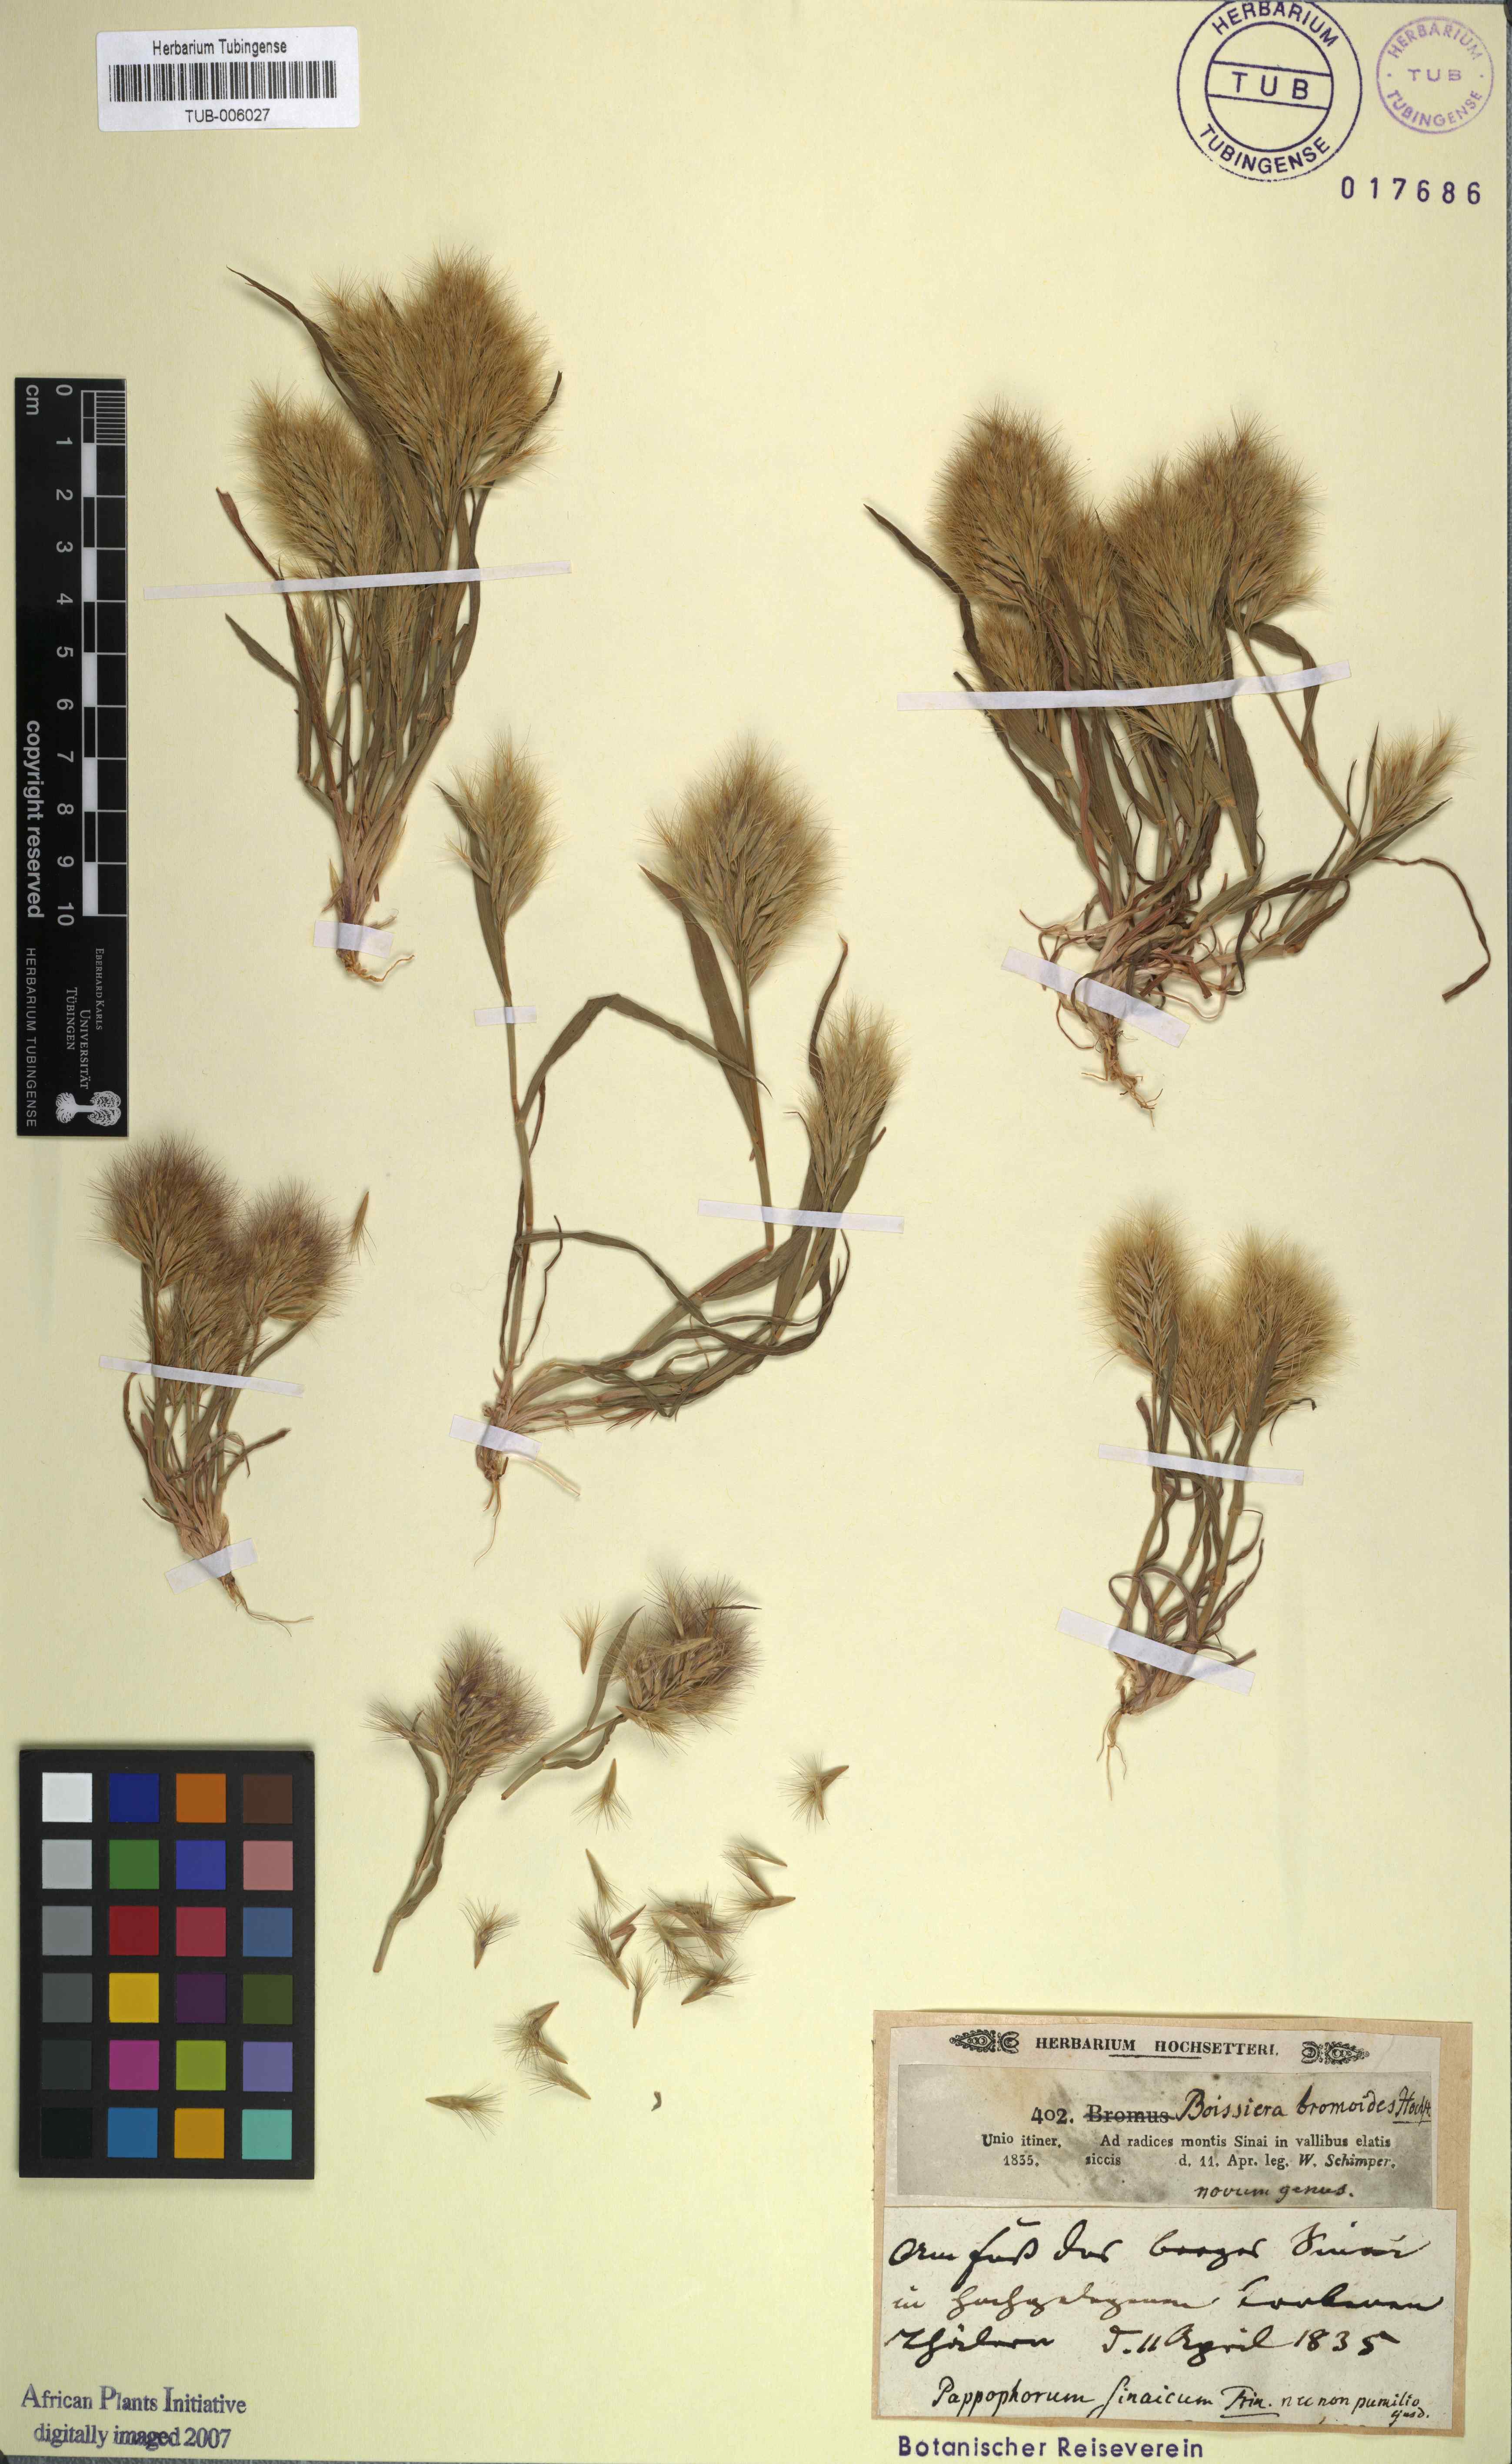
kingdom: Plantae
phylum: Tracheophyta
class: Liliopsida
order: Poales
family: Poaceae
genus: Bromus
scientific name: Bromus pumilio
